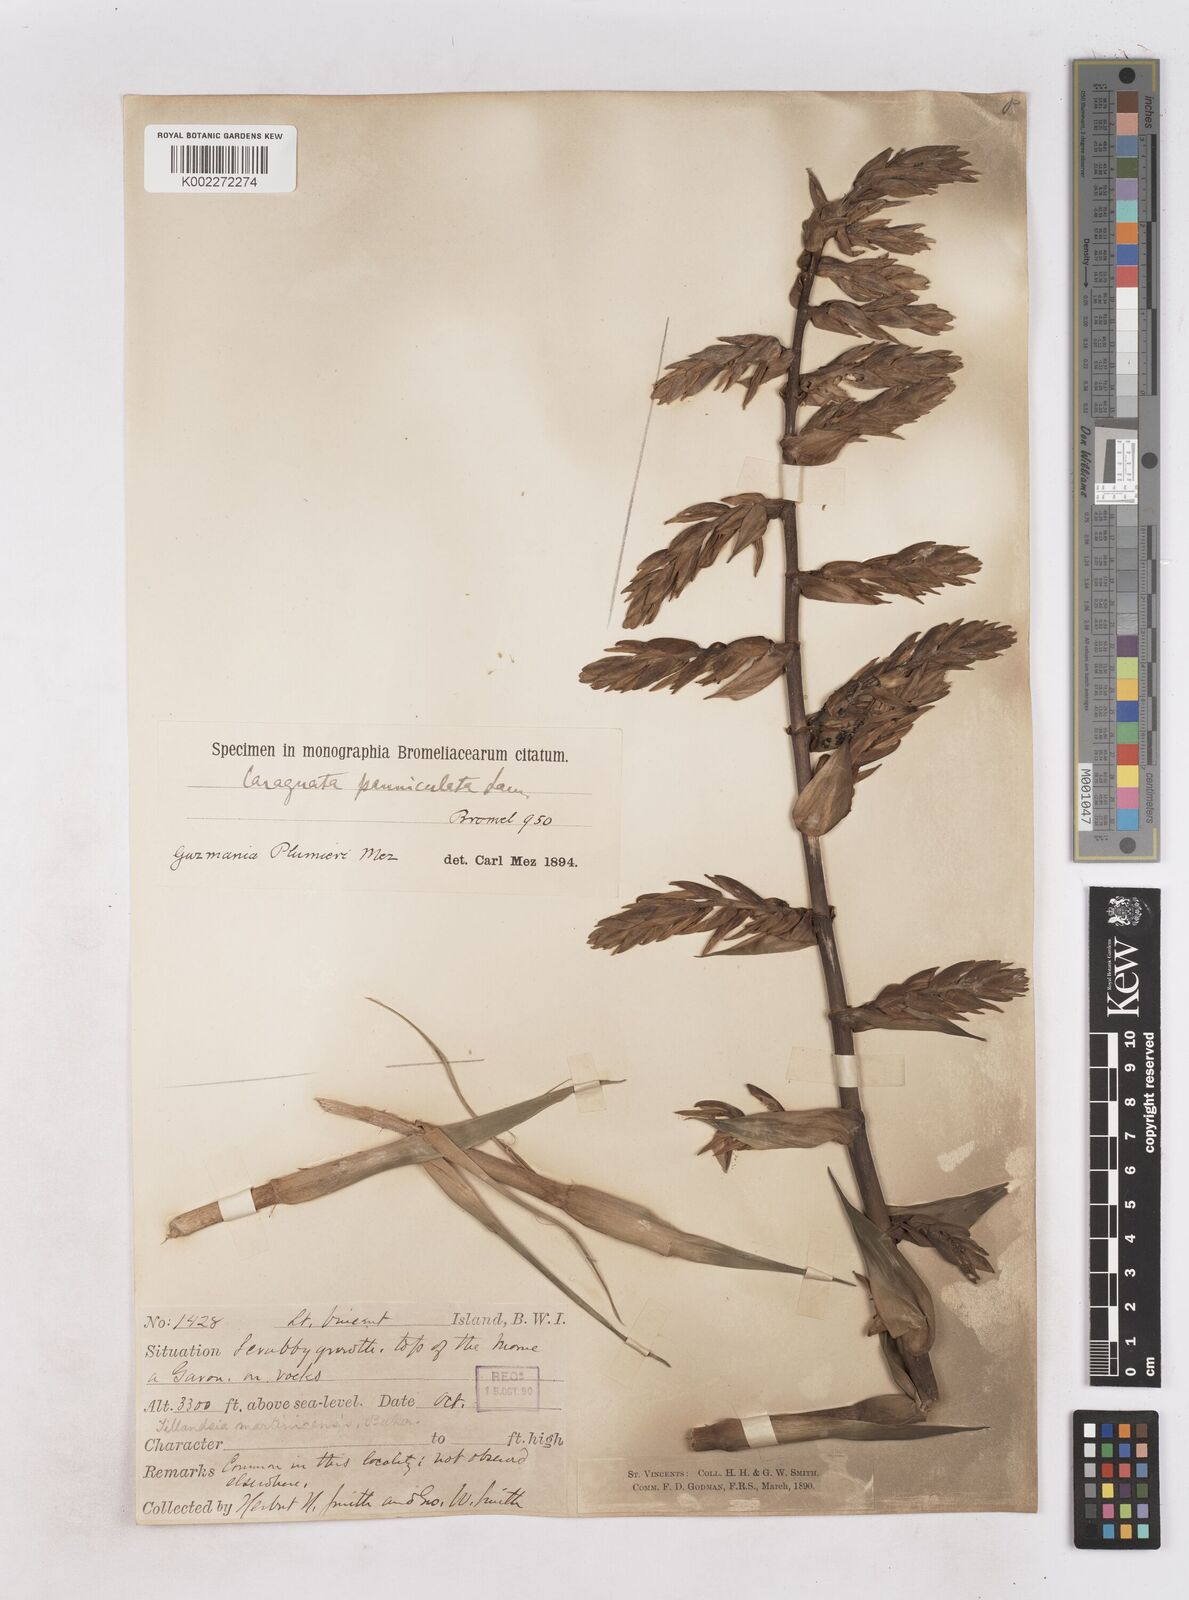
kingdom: Plantae
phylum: Tracheophyta
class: Liliopsida
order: Poales
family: Bromeliaceae
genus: Guzmania
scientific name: Guzmania plumieri
